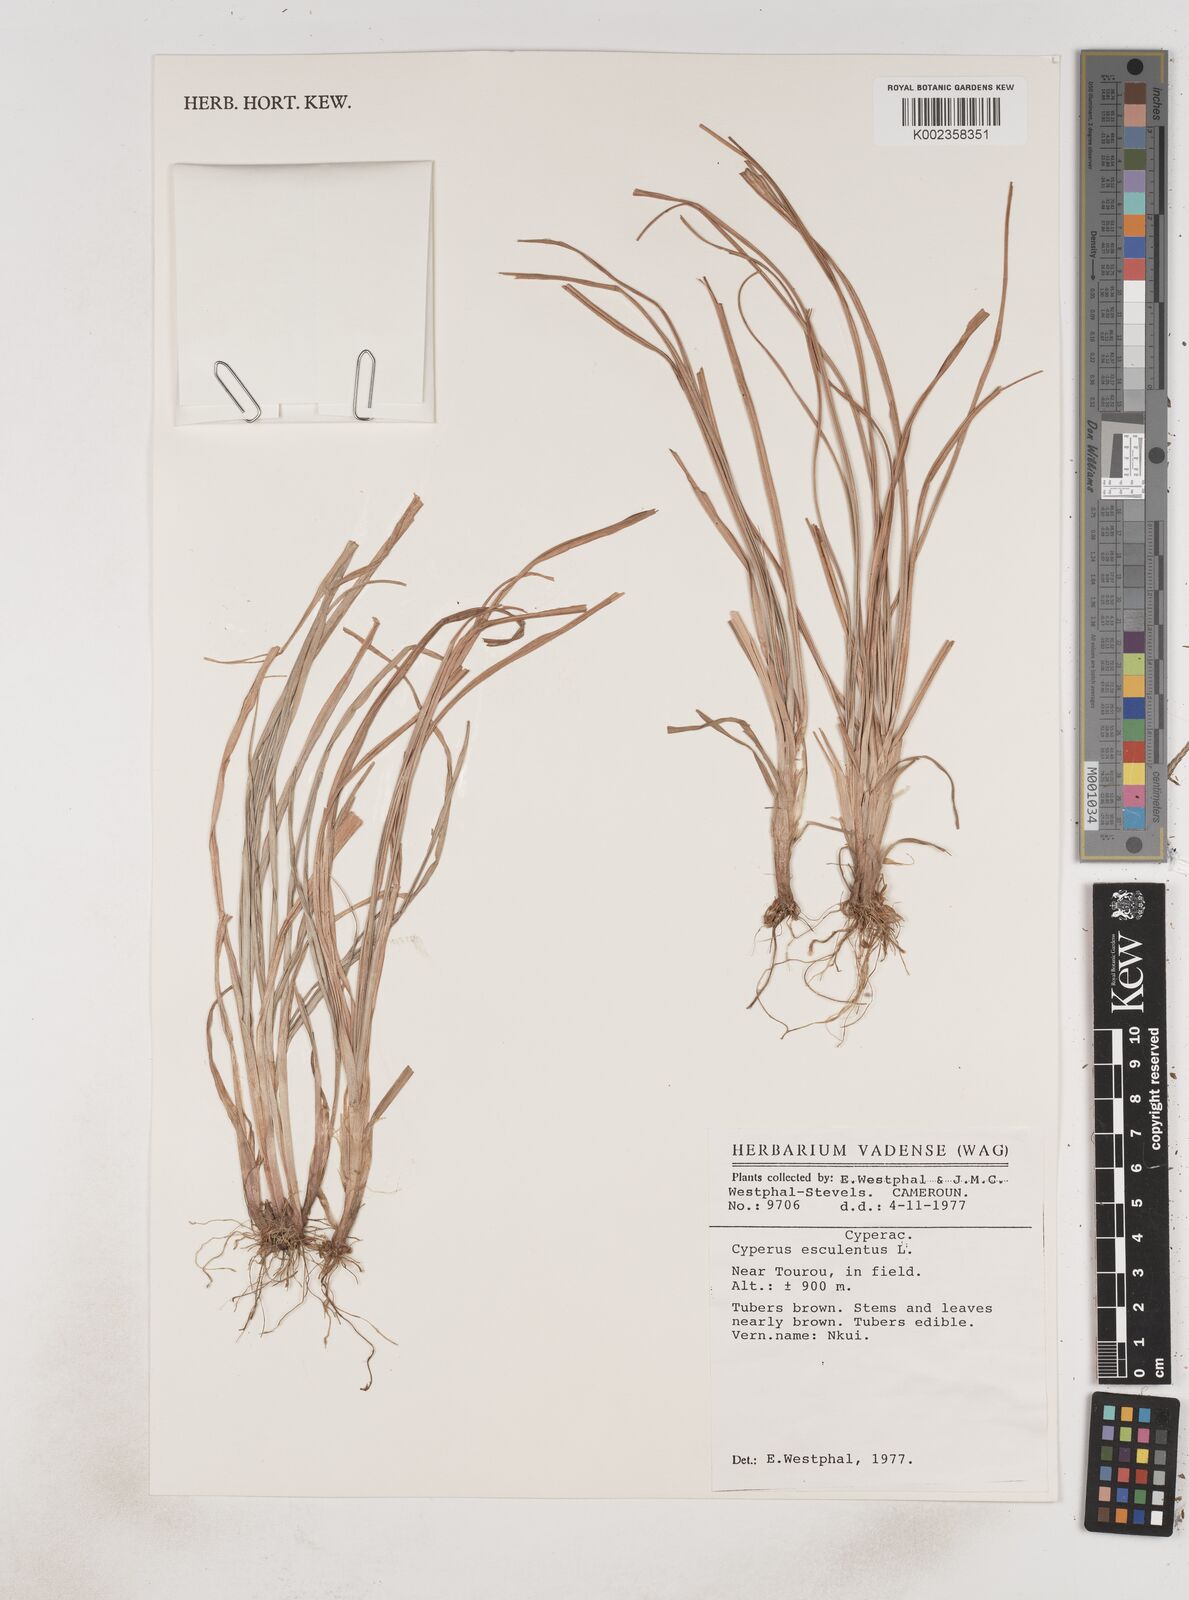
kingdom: Plantae
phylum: Tracheophyta
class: Liliopsida
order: Poales
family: Cyperaceae
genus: Cyperus
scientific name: Cyperus esculentus
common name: Yellow nutsedge
